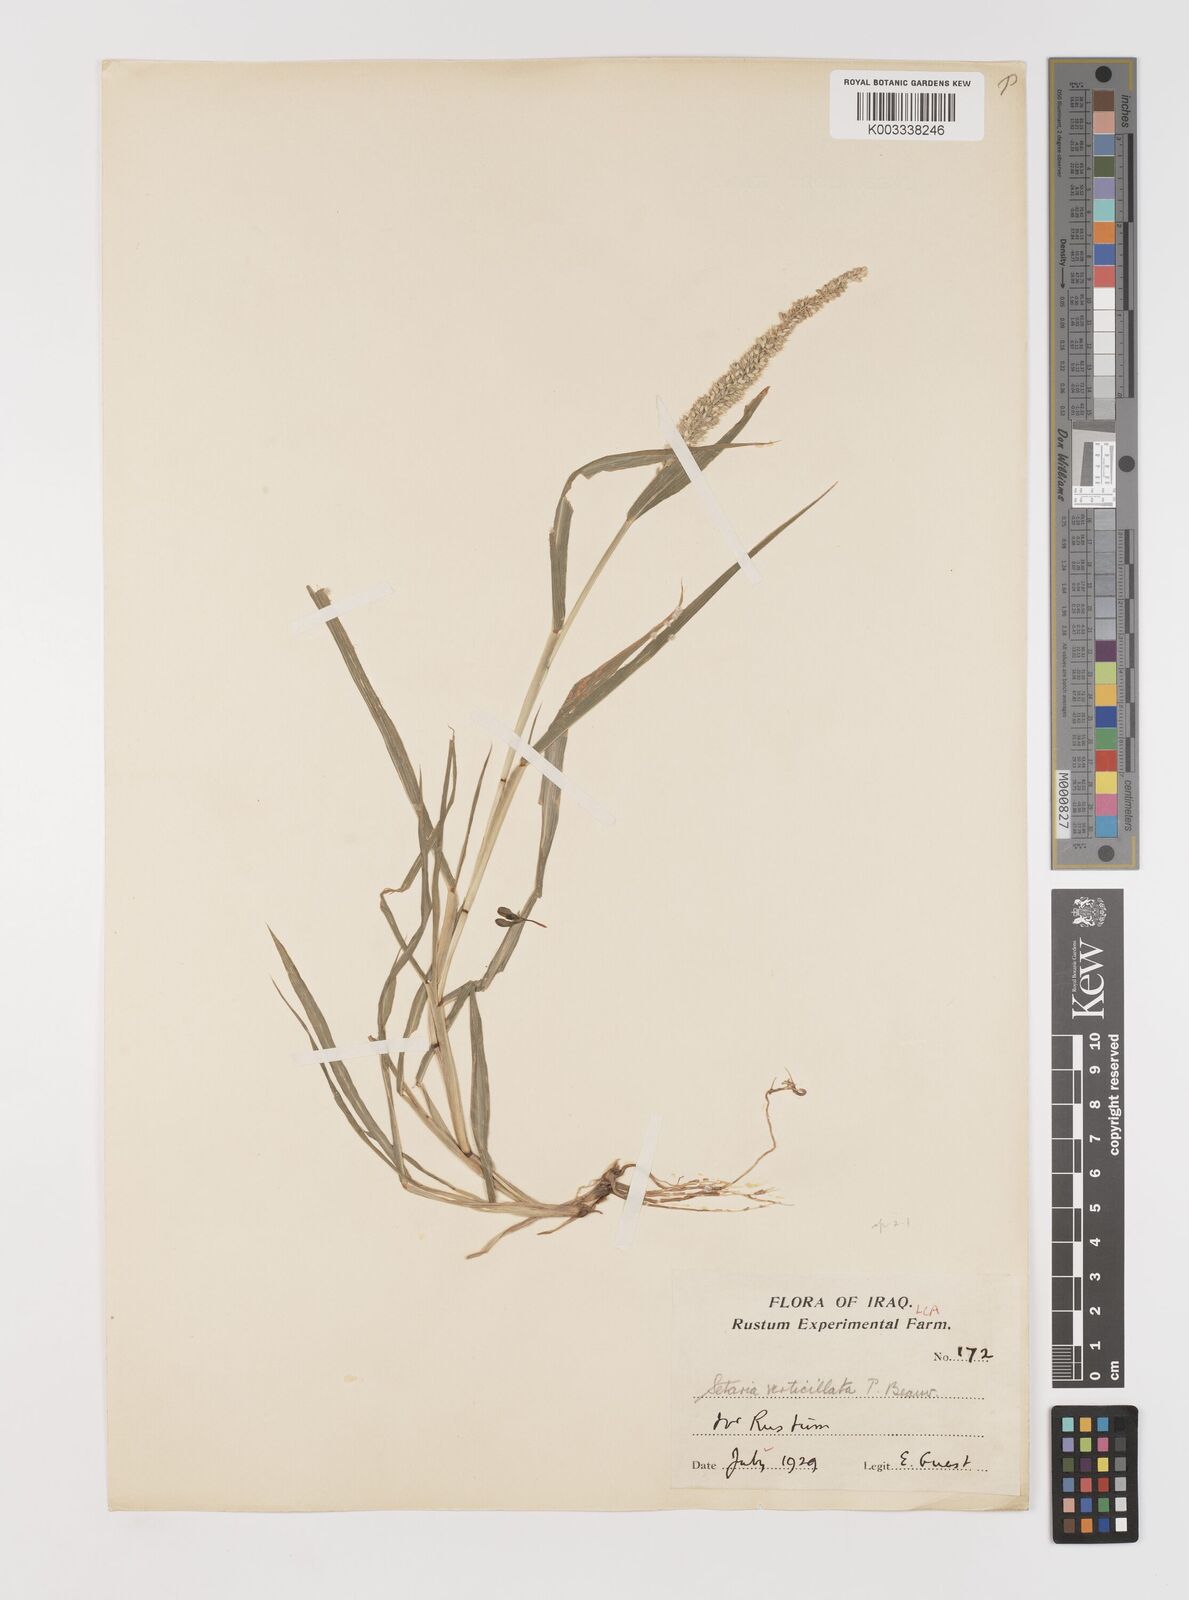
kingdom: Plantae
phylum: Tracheophyta
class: Liliopsida
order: Poales
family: Poaceae
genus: Setaria
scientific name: Setaria verticillata
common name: Hooked bristlegrass
